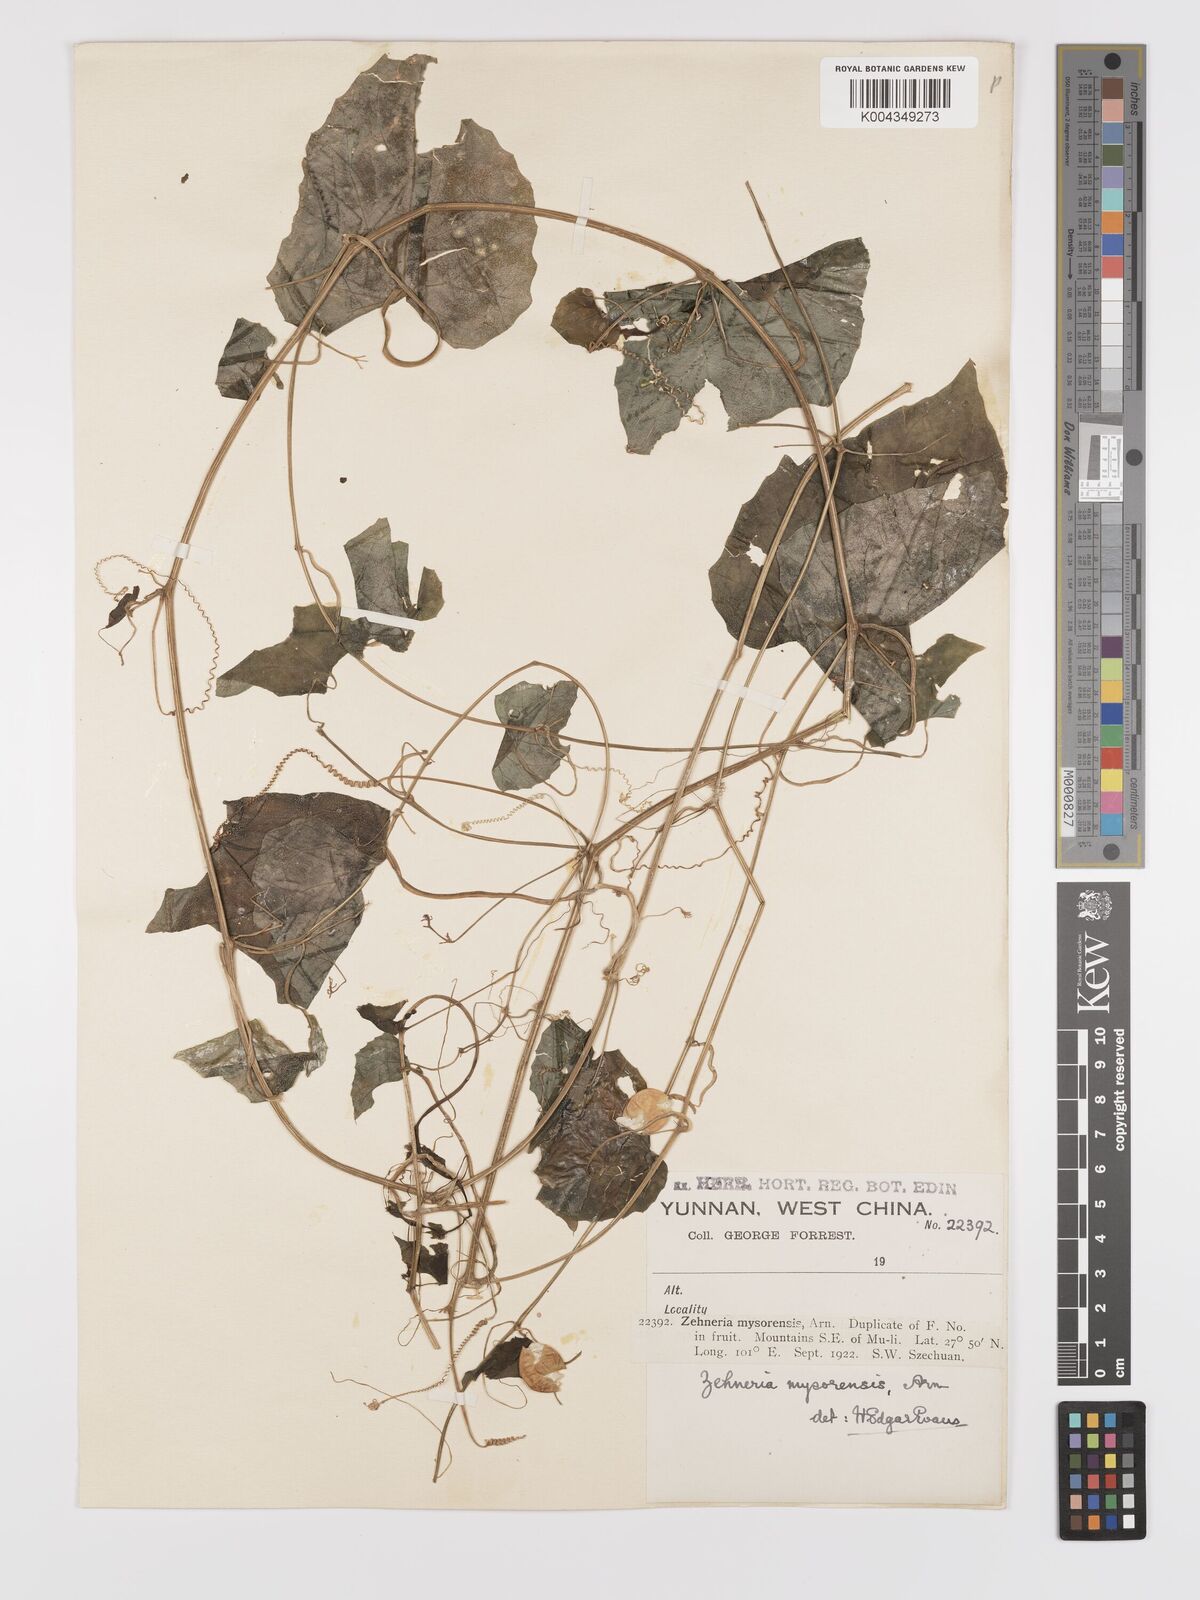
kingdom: Plantae
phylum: Tracheophyta
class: Magnoliopsida
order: Cucurbitales
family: Cucurbitaceae
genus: Zehneria
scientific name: Zehneria maysorensis
